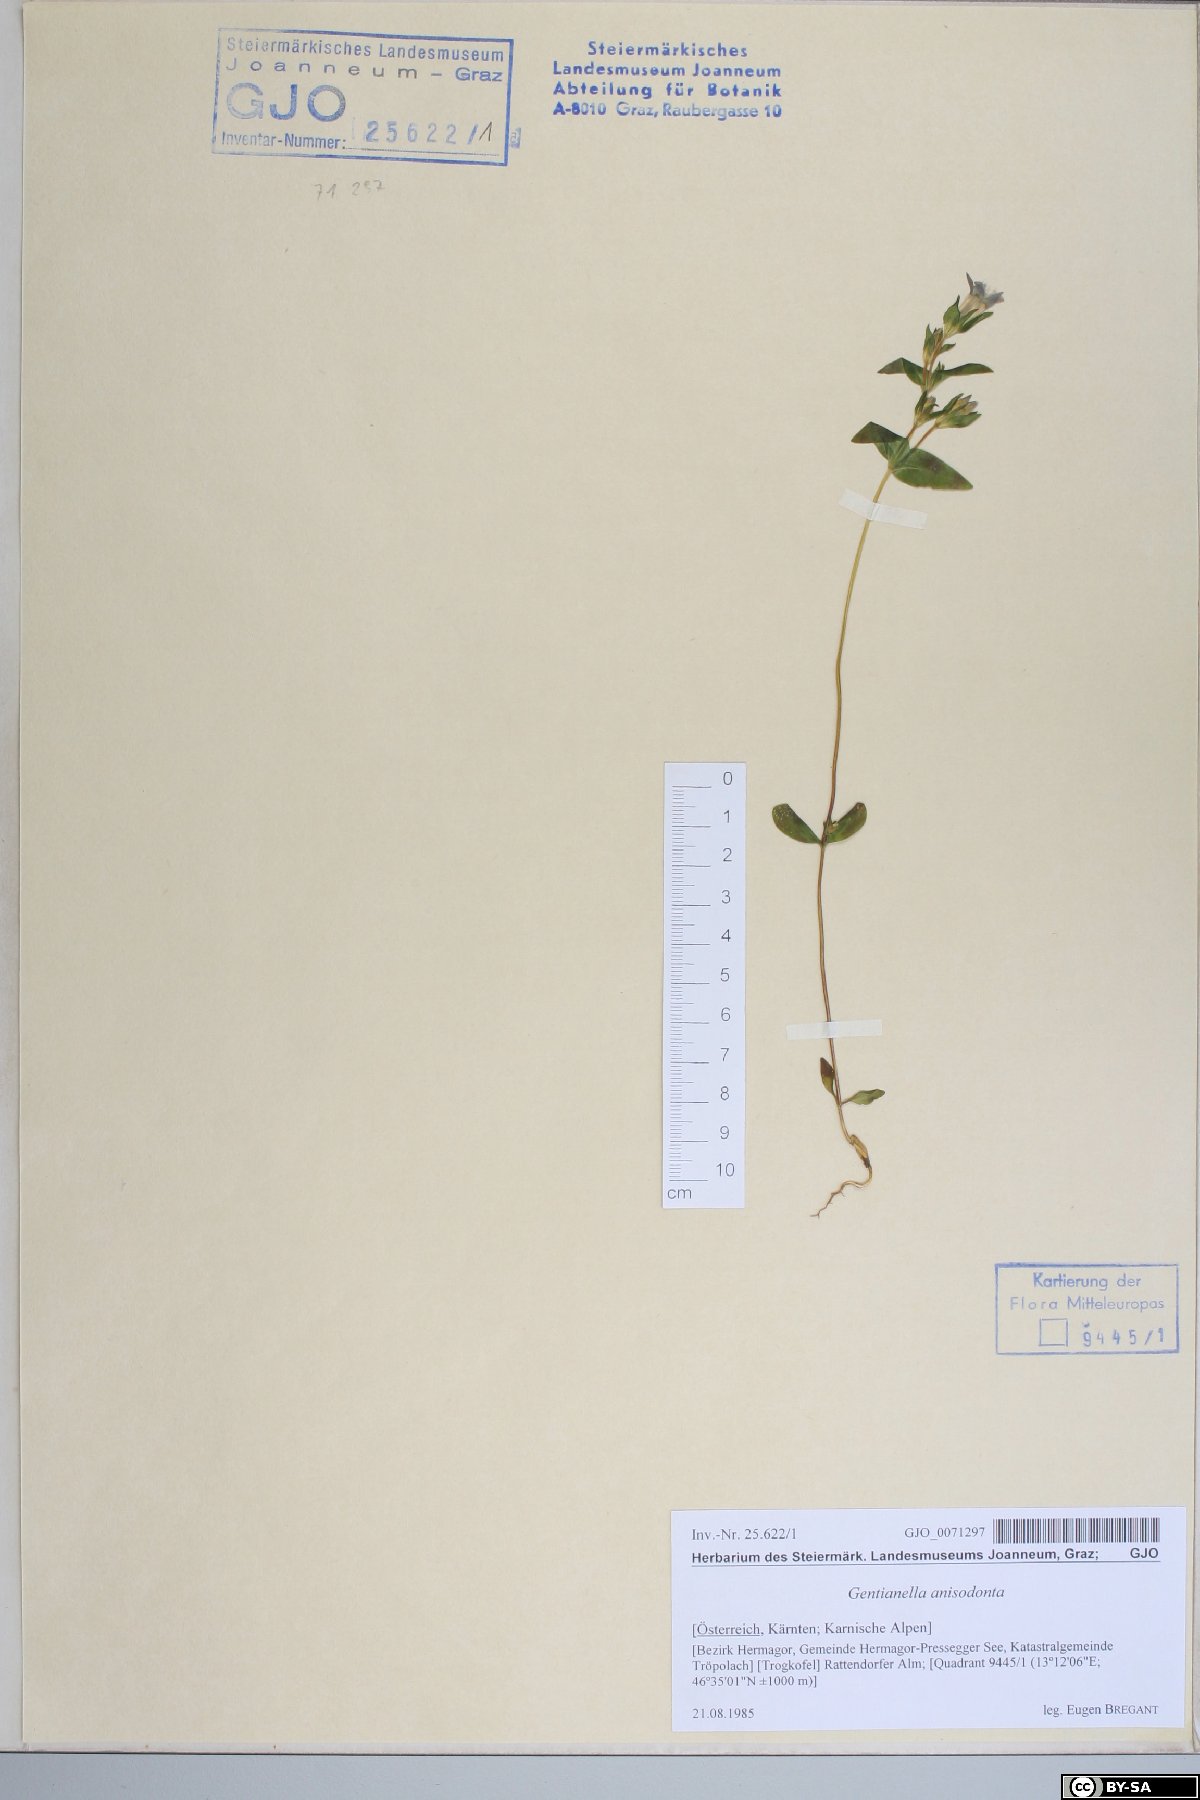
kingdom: Plantae
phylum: Tracheophyta
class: Magnoliopsida
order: Gentianales
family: Gentianaceae
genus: Gentianella
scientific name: Gentianella anisodonta
